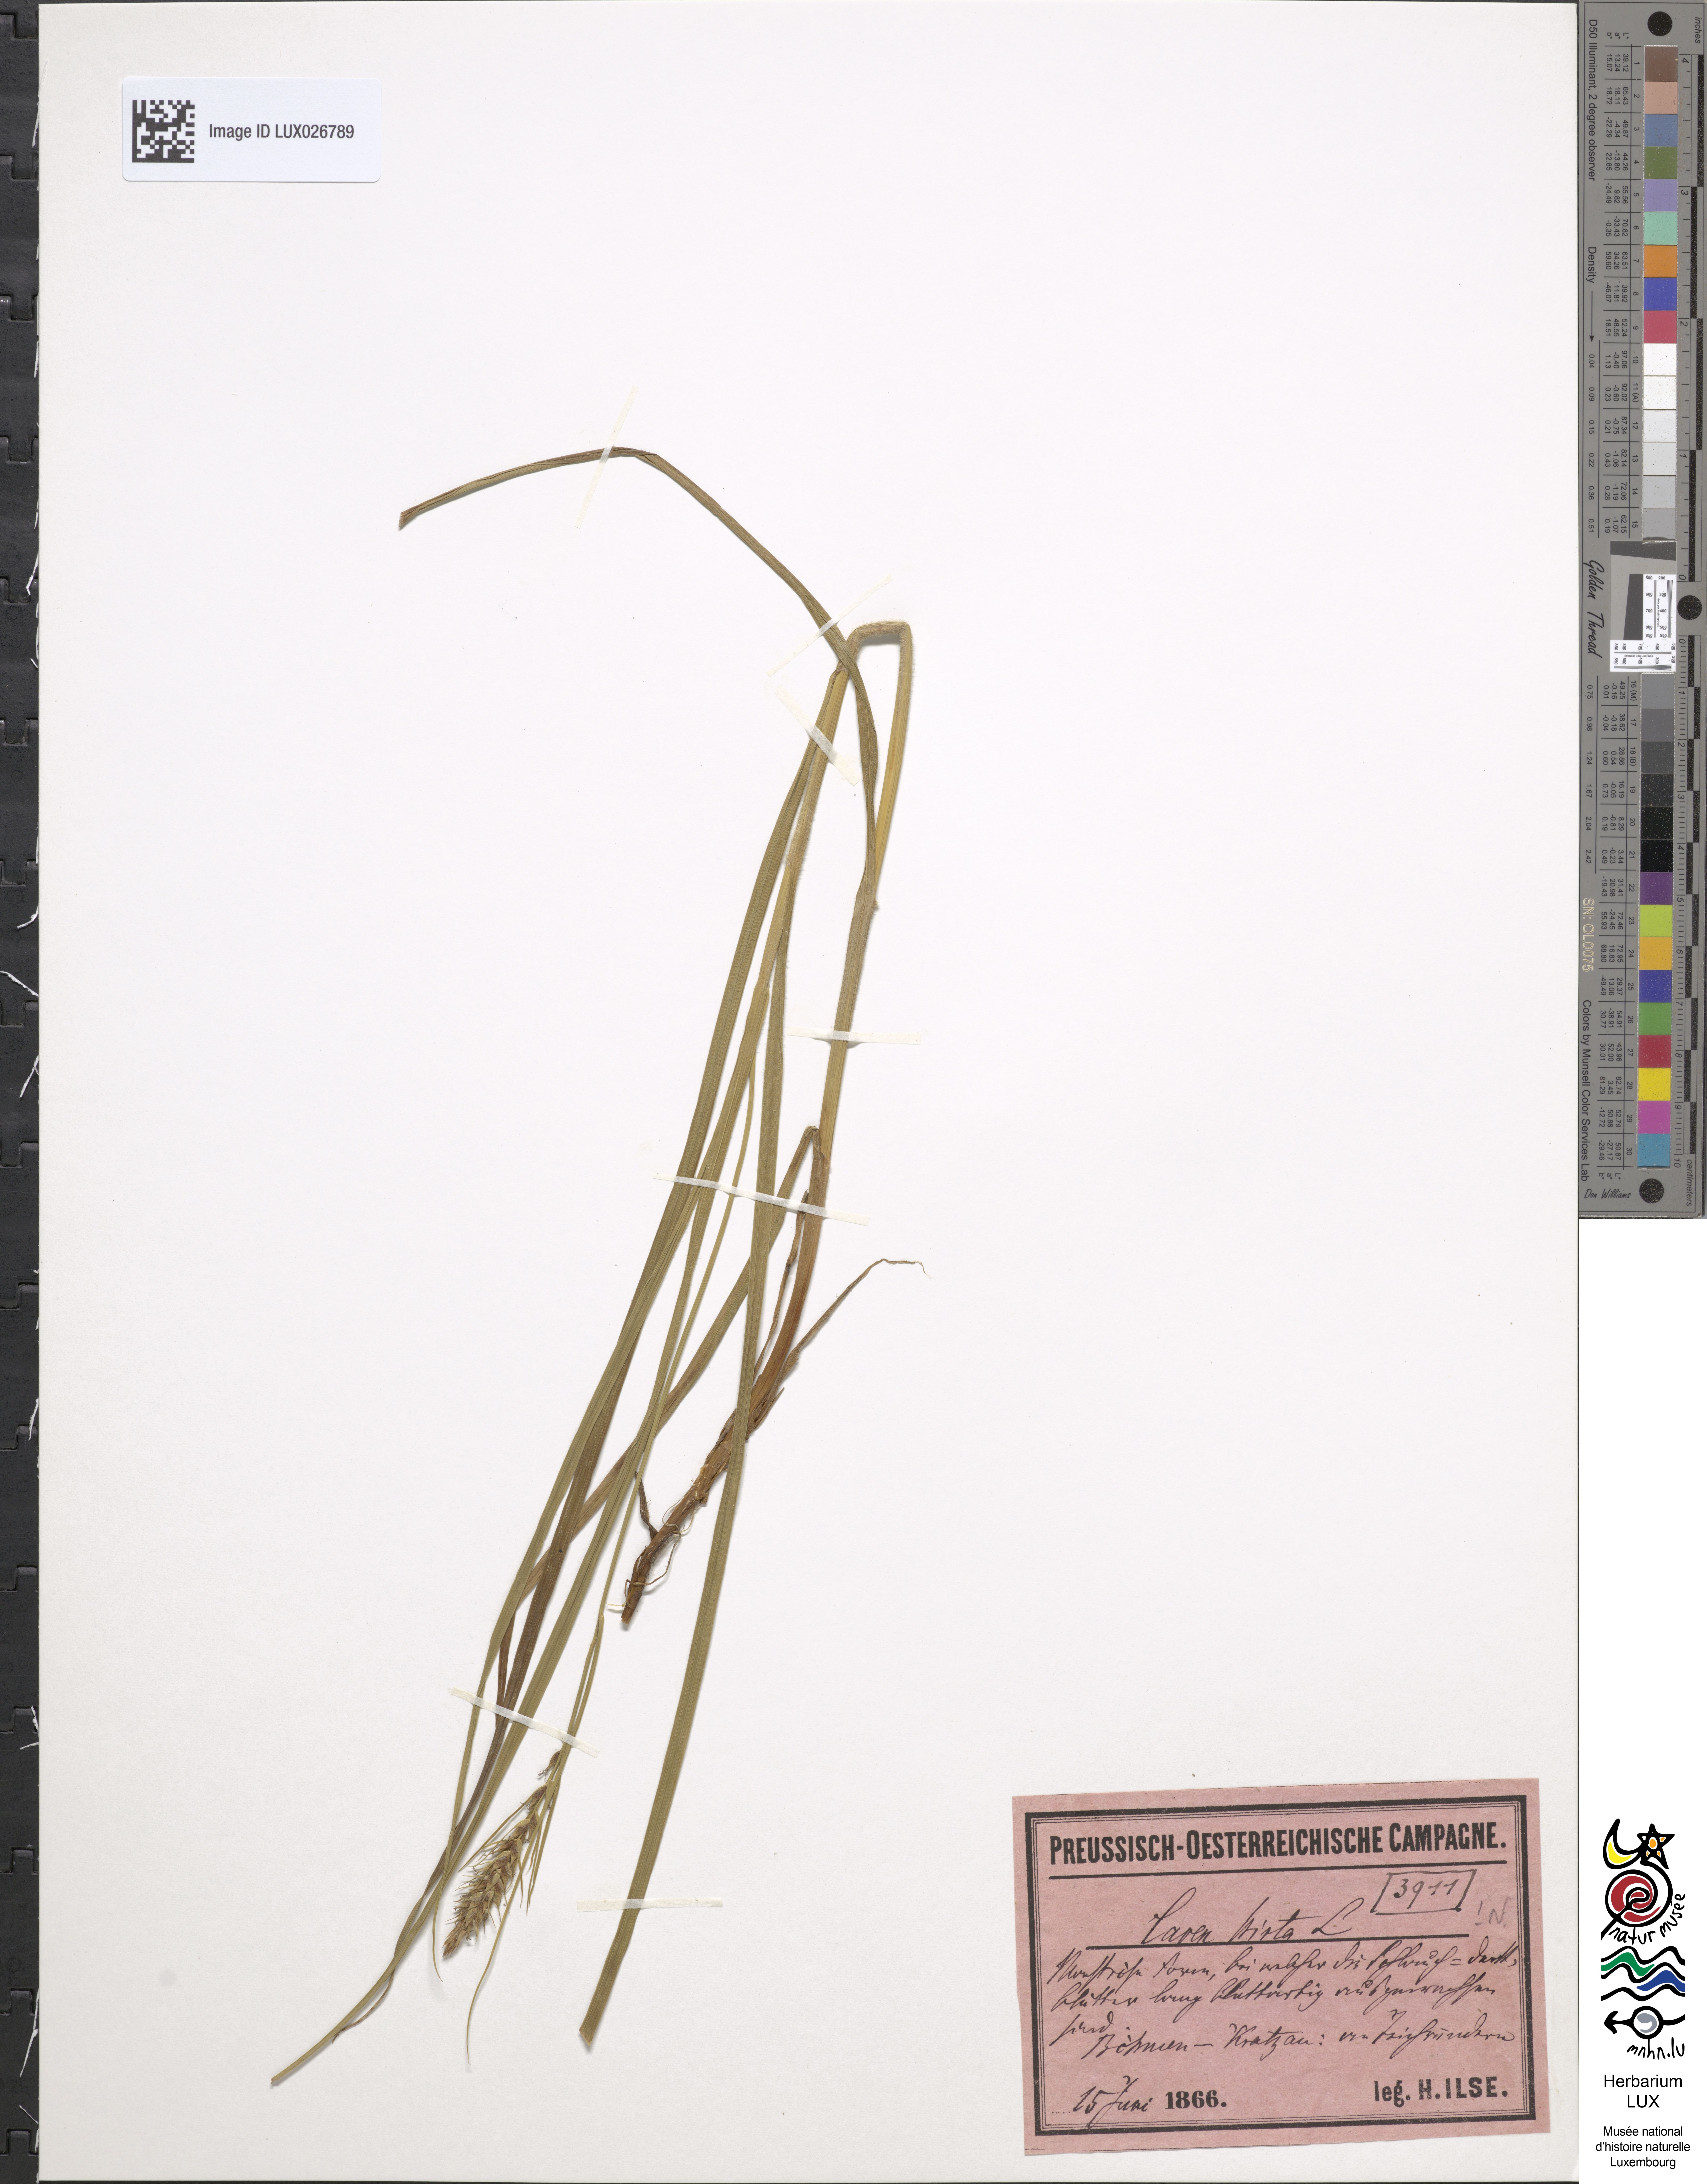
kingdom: Plantae
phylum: Tracheophyta
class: Liliopsida
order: Poales
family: Cyperaceae
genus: Carex
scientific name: Carex hirta
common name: Hairy sedge
